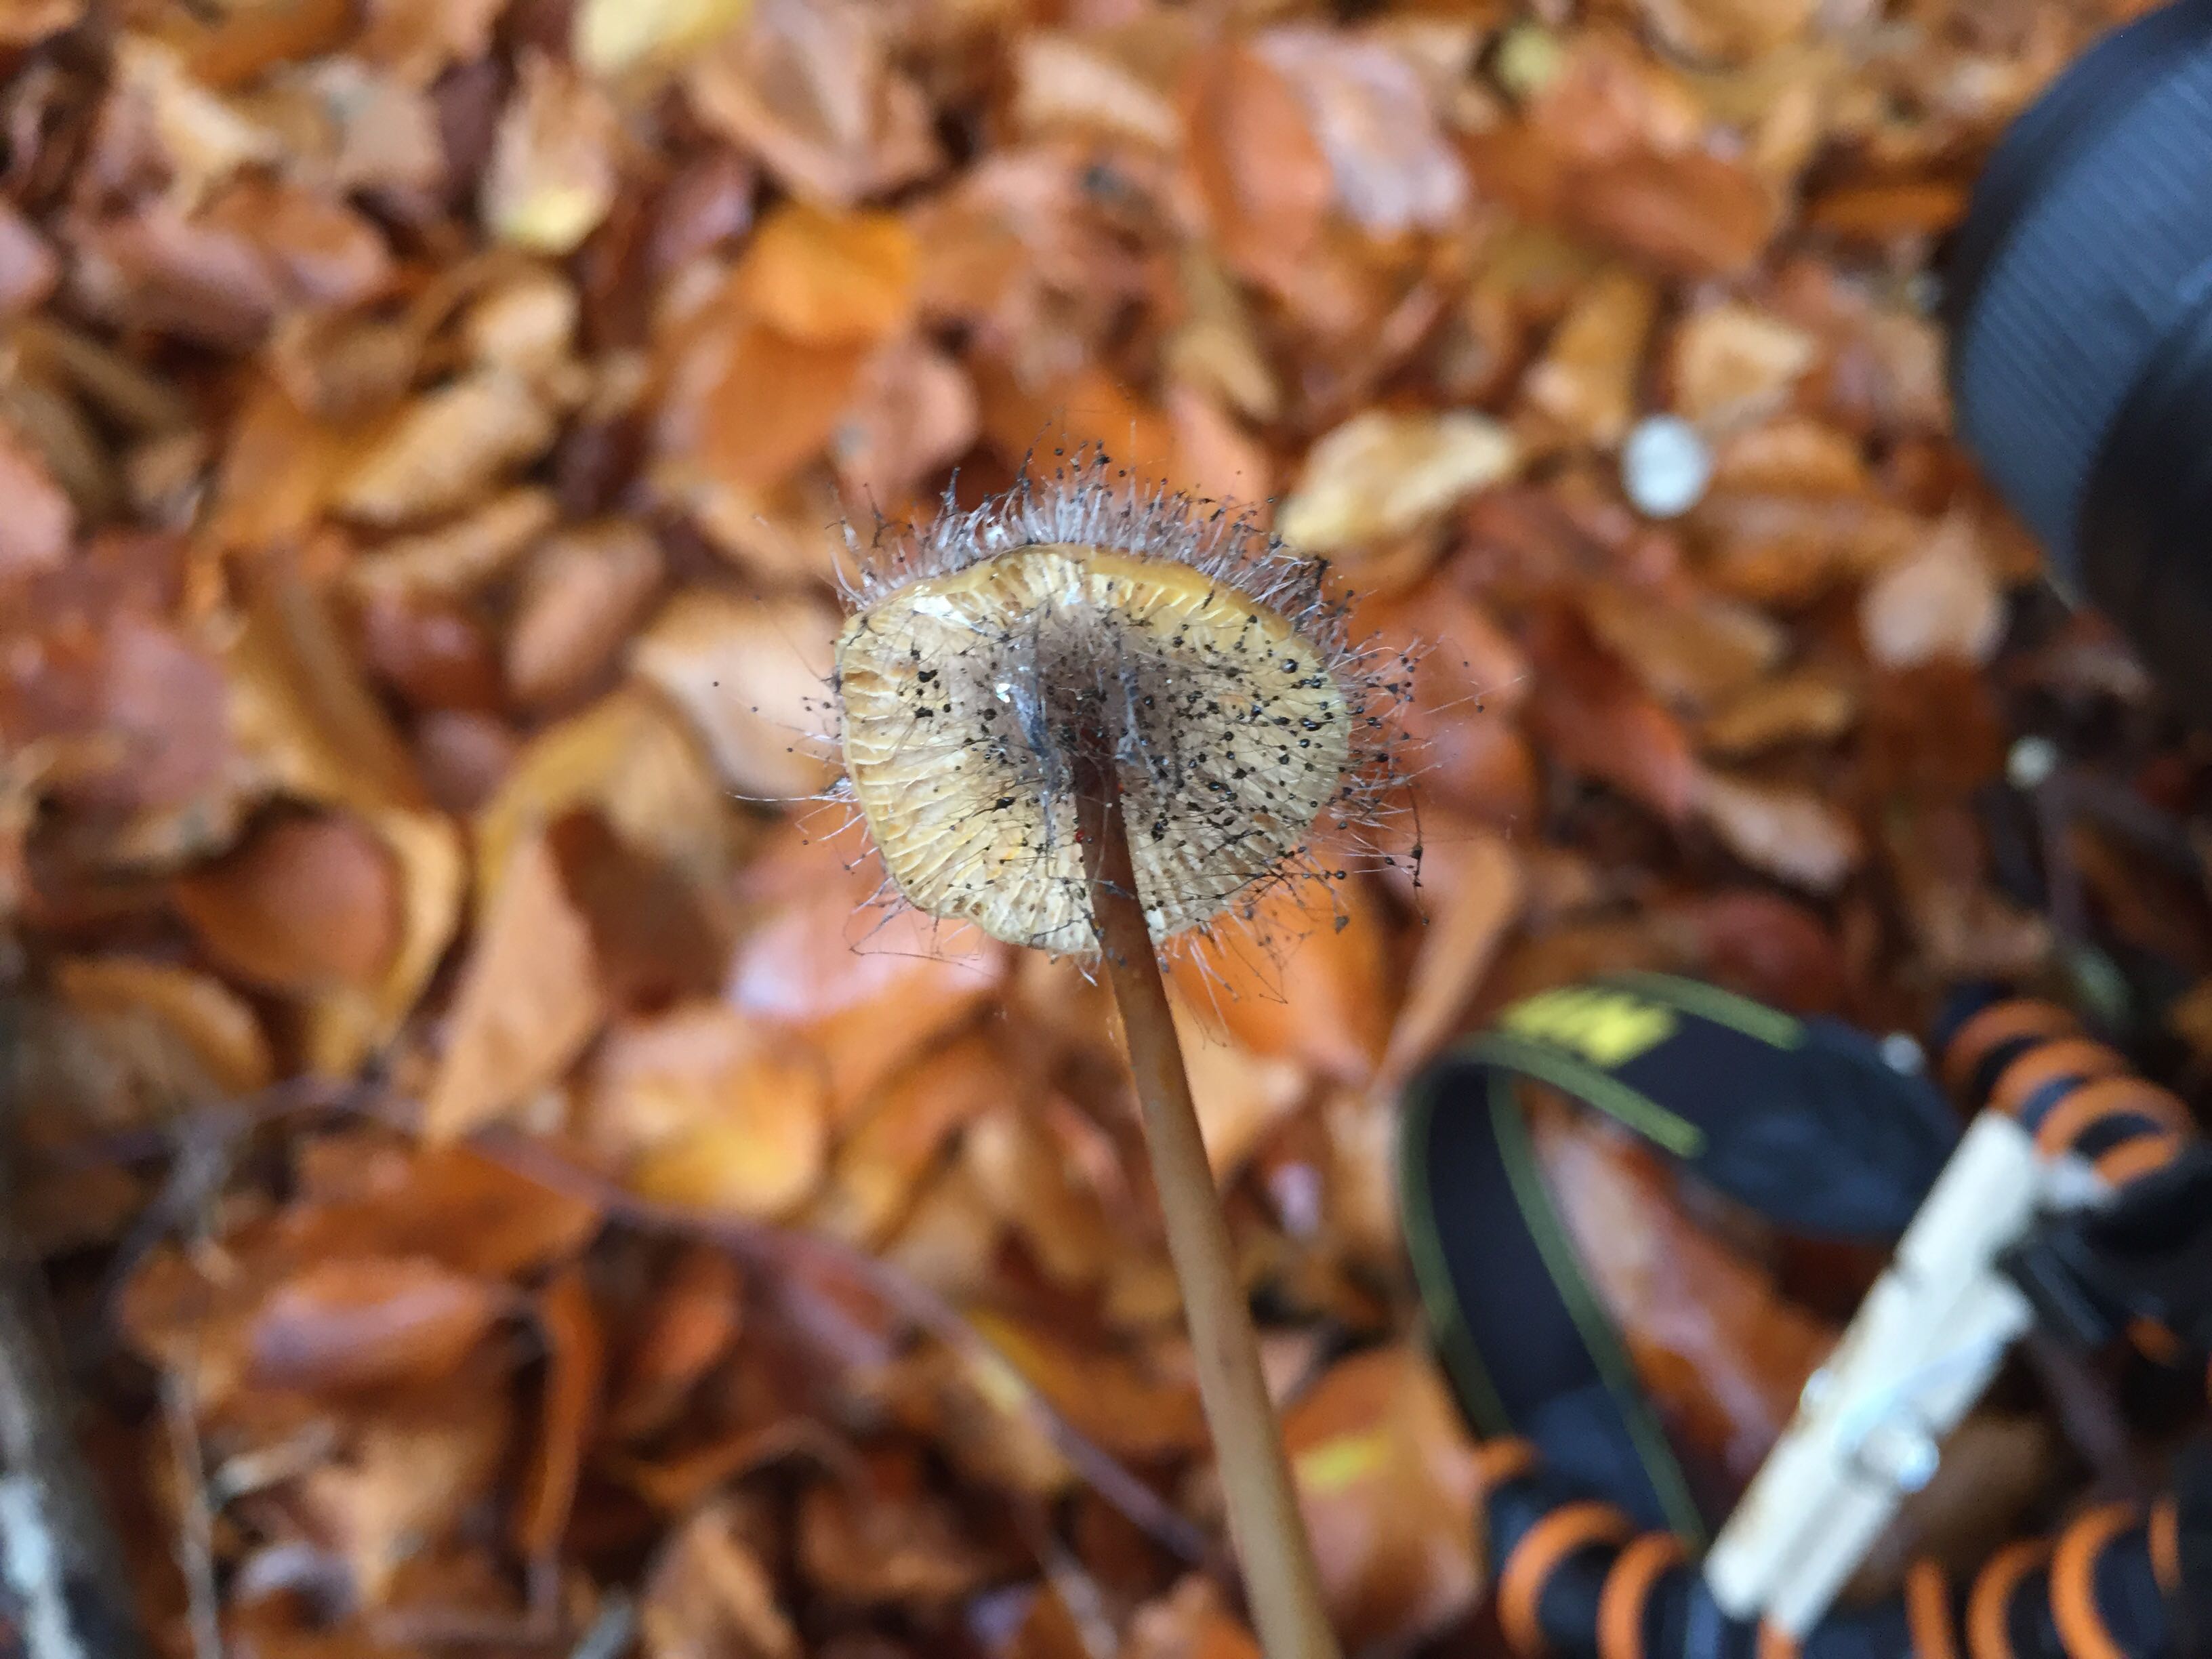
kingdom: Fungi
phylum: Mucoromycota
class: Mucoromycetes
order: Mucorales
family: Phycomycetaceae
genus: Spinellus
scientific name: Spinellus fusiger
